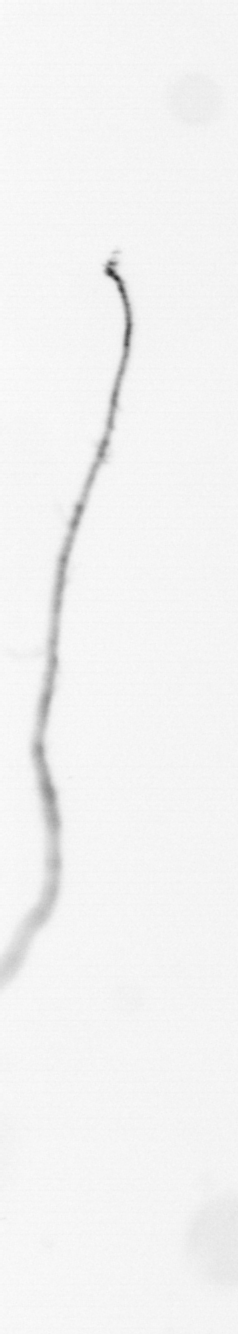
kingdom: Chromista
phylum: Ochrophyta
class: Bacillariophyceae
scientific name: Bacillariophyceae
